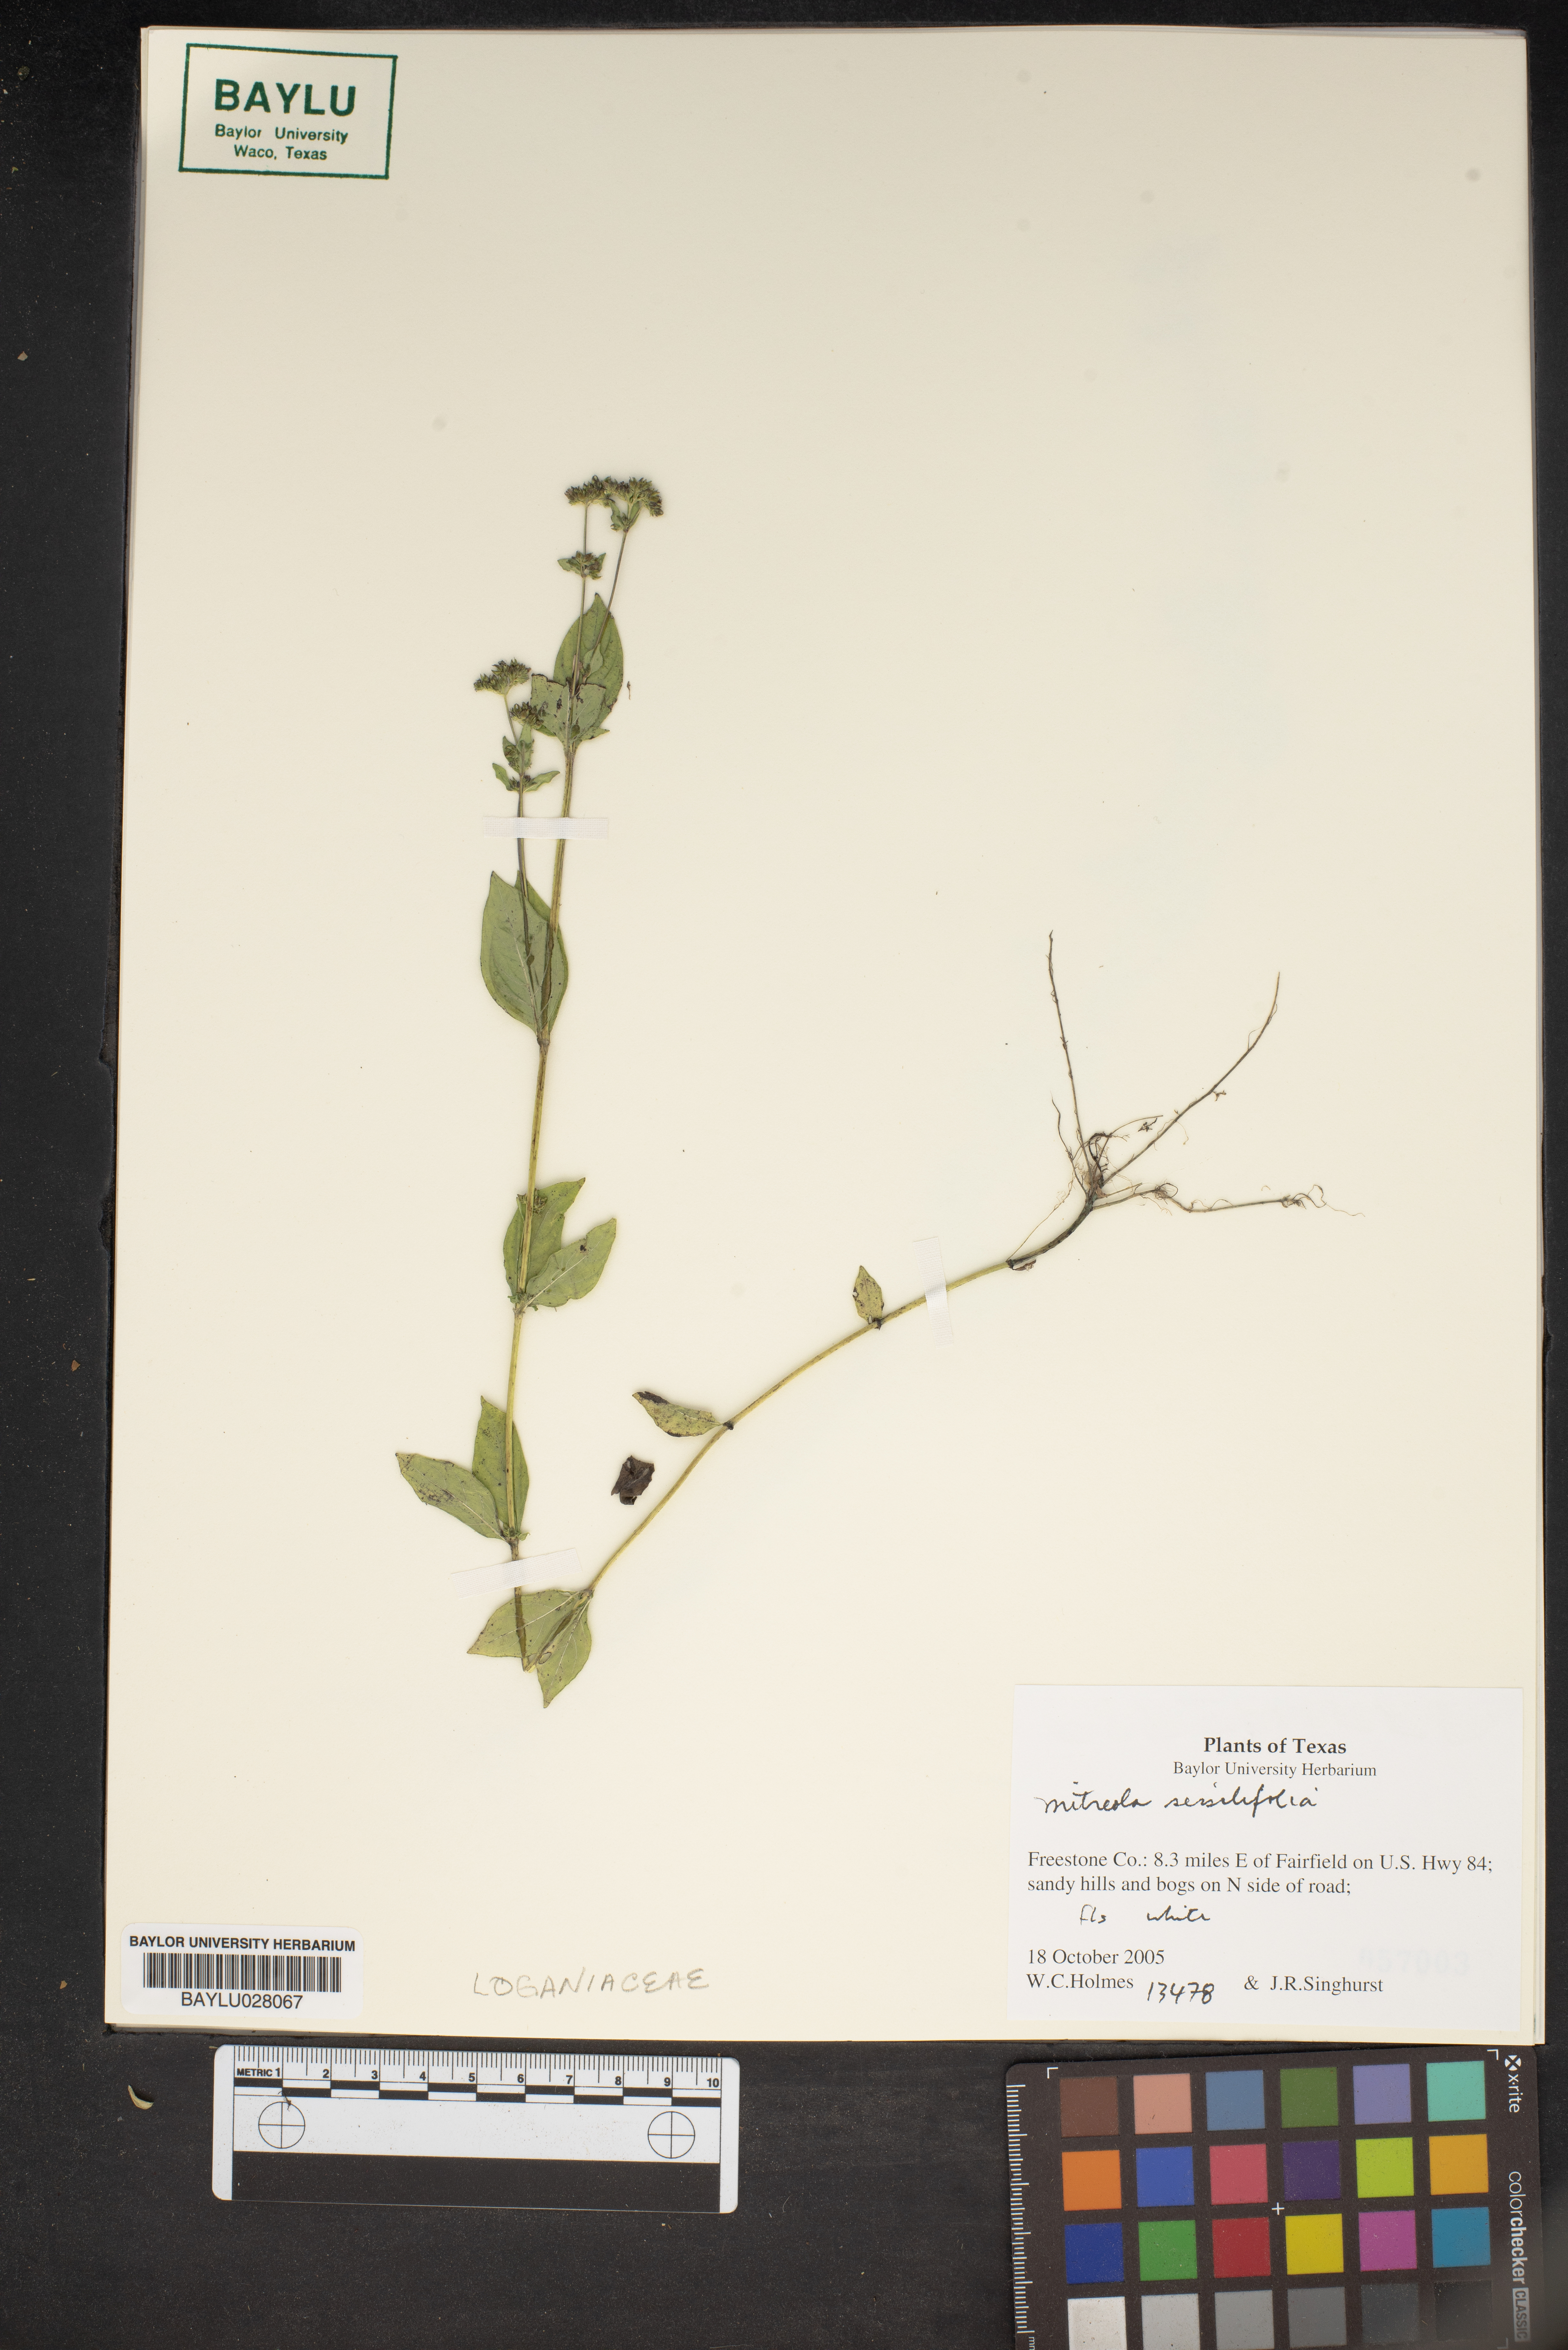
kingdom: Plantae
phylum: Tracheophyta
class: Magnoliopsida
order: Gentianales
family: Loganiaceae
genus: Mitreola
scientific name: Mitreola sessilifolia
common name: Swamp hornpod
